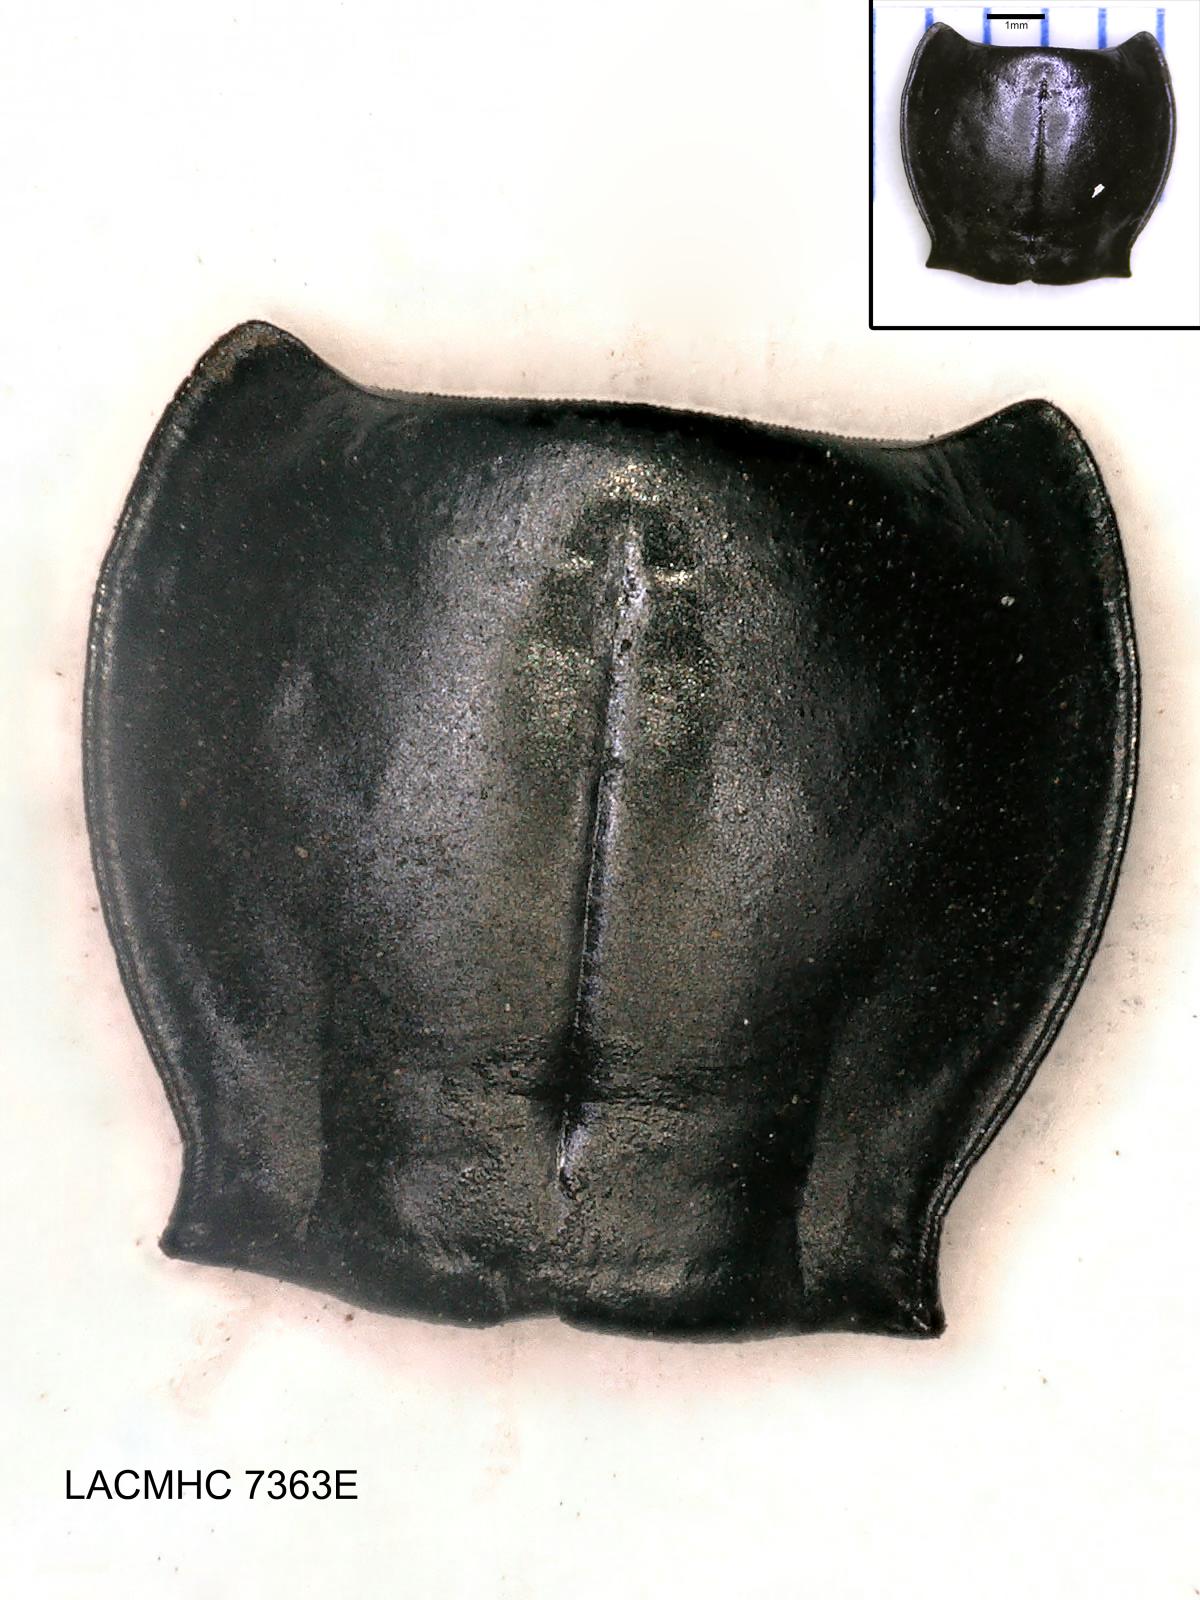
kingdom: Animalia
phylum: Arthropoda
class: Insecta
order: Coleoptera
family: Carabidae
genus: Pterostichus
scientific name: Pterostichus illustris
